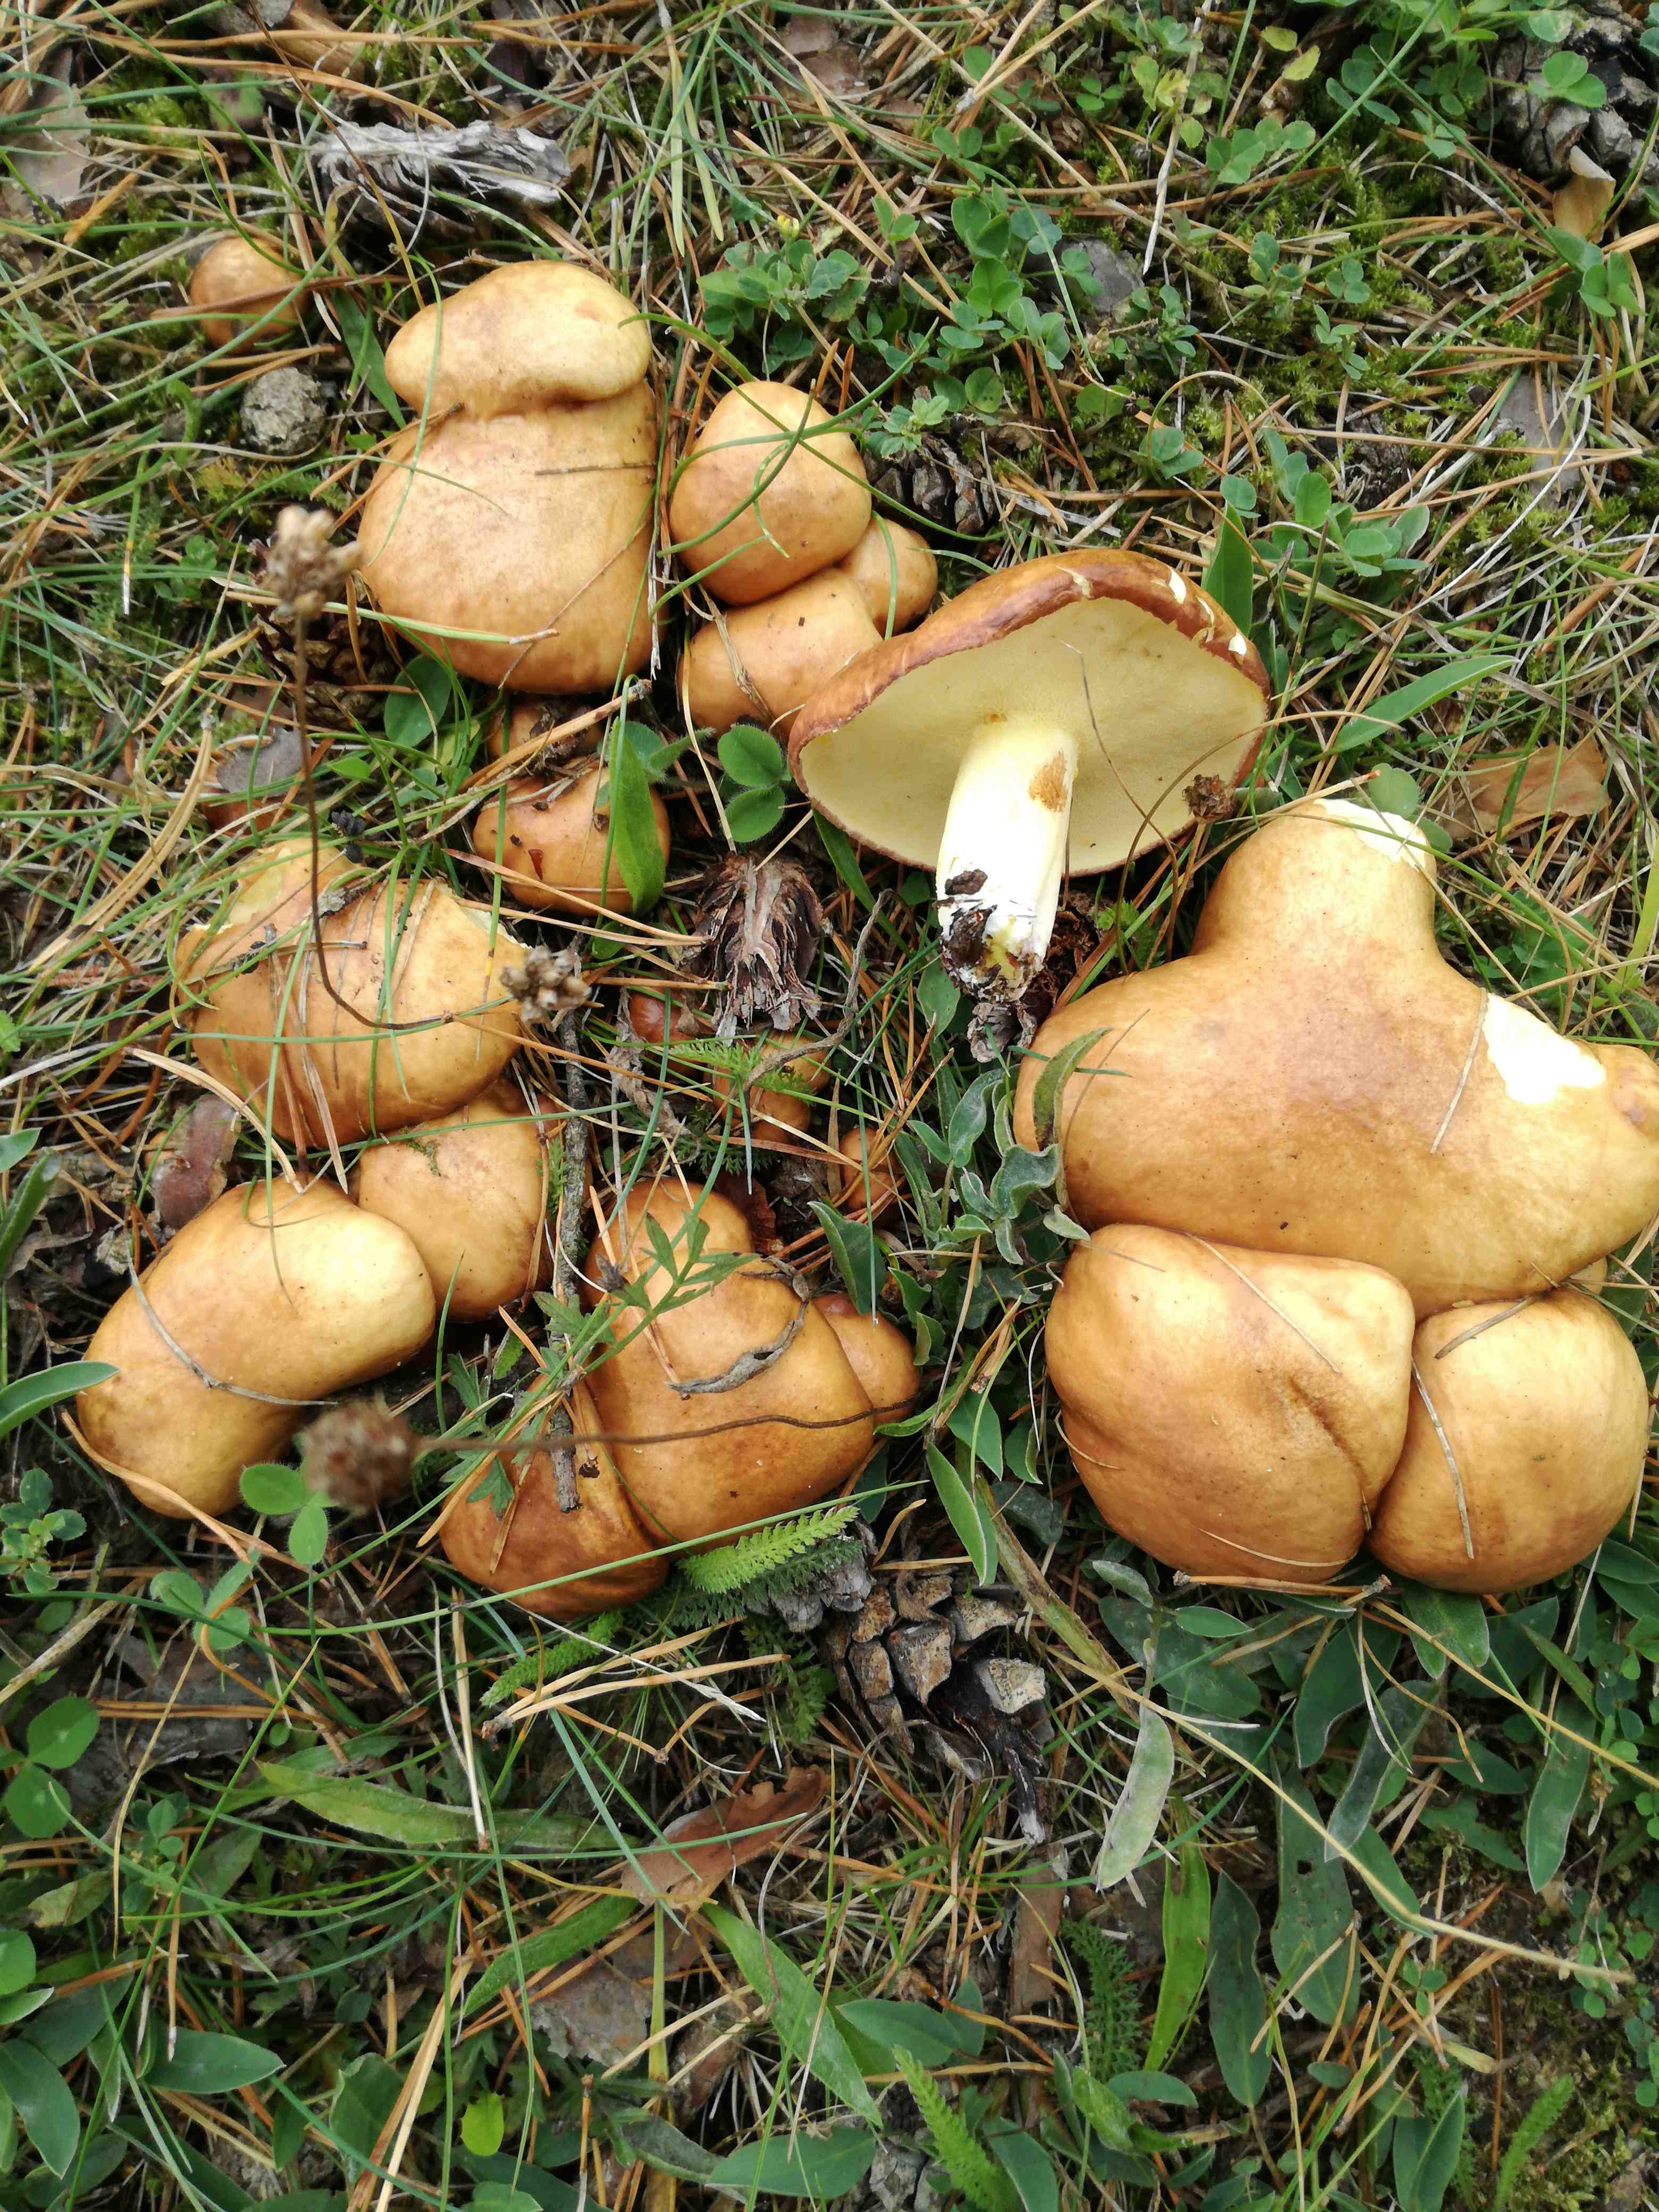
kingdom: Fungi
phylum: Basidiomycota
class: Agaricomycetes
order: Boletales
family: Suillaceae
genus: Suillus
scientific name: Suillus granulatus
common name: kornet slimrørhat
